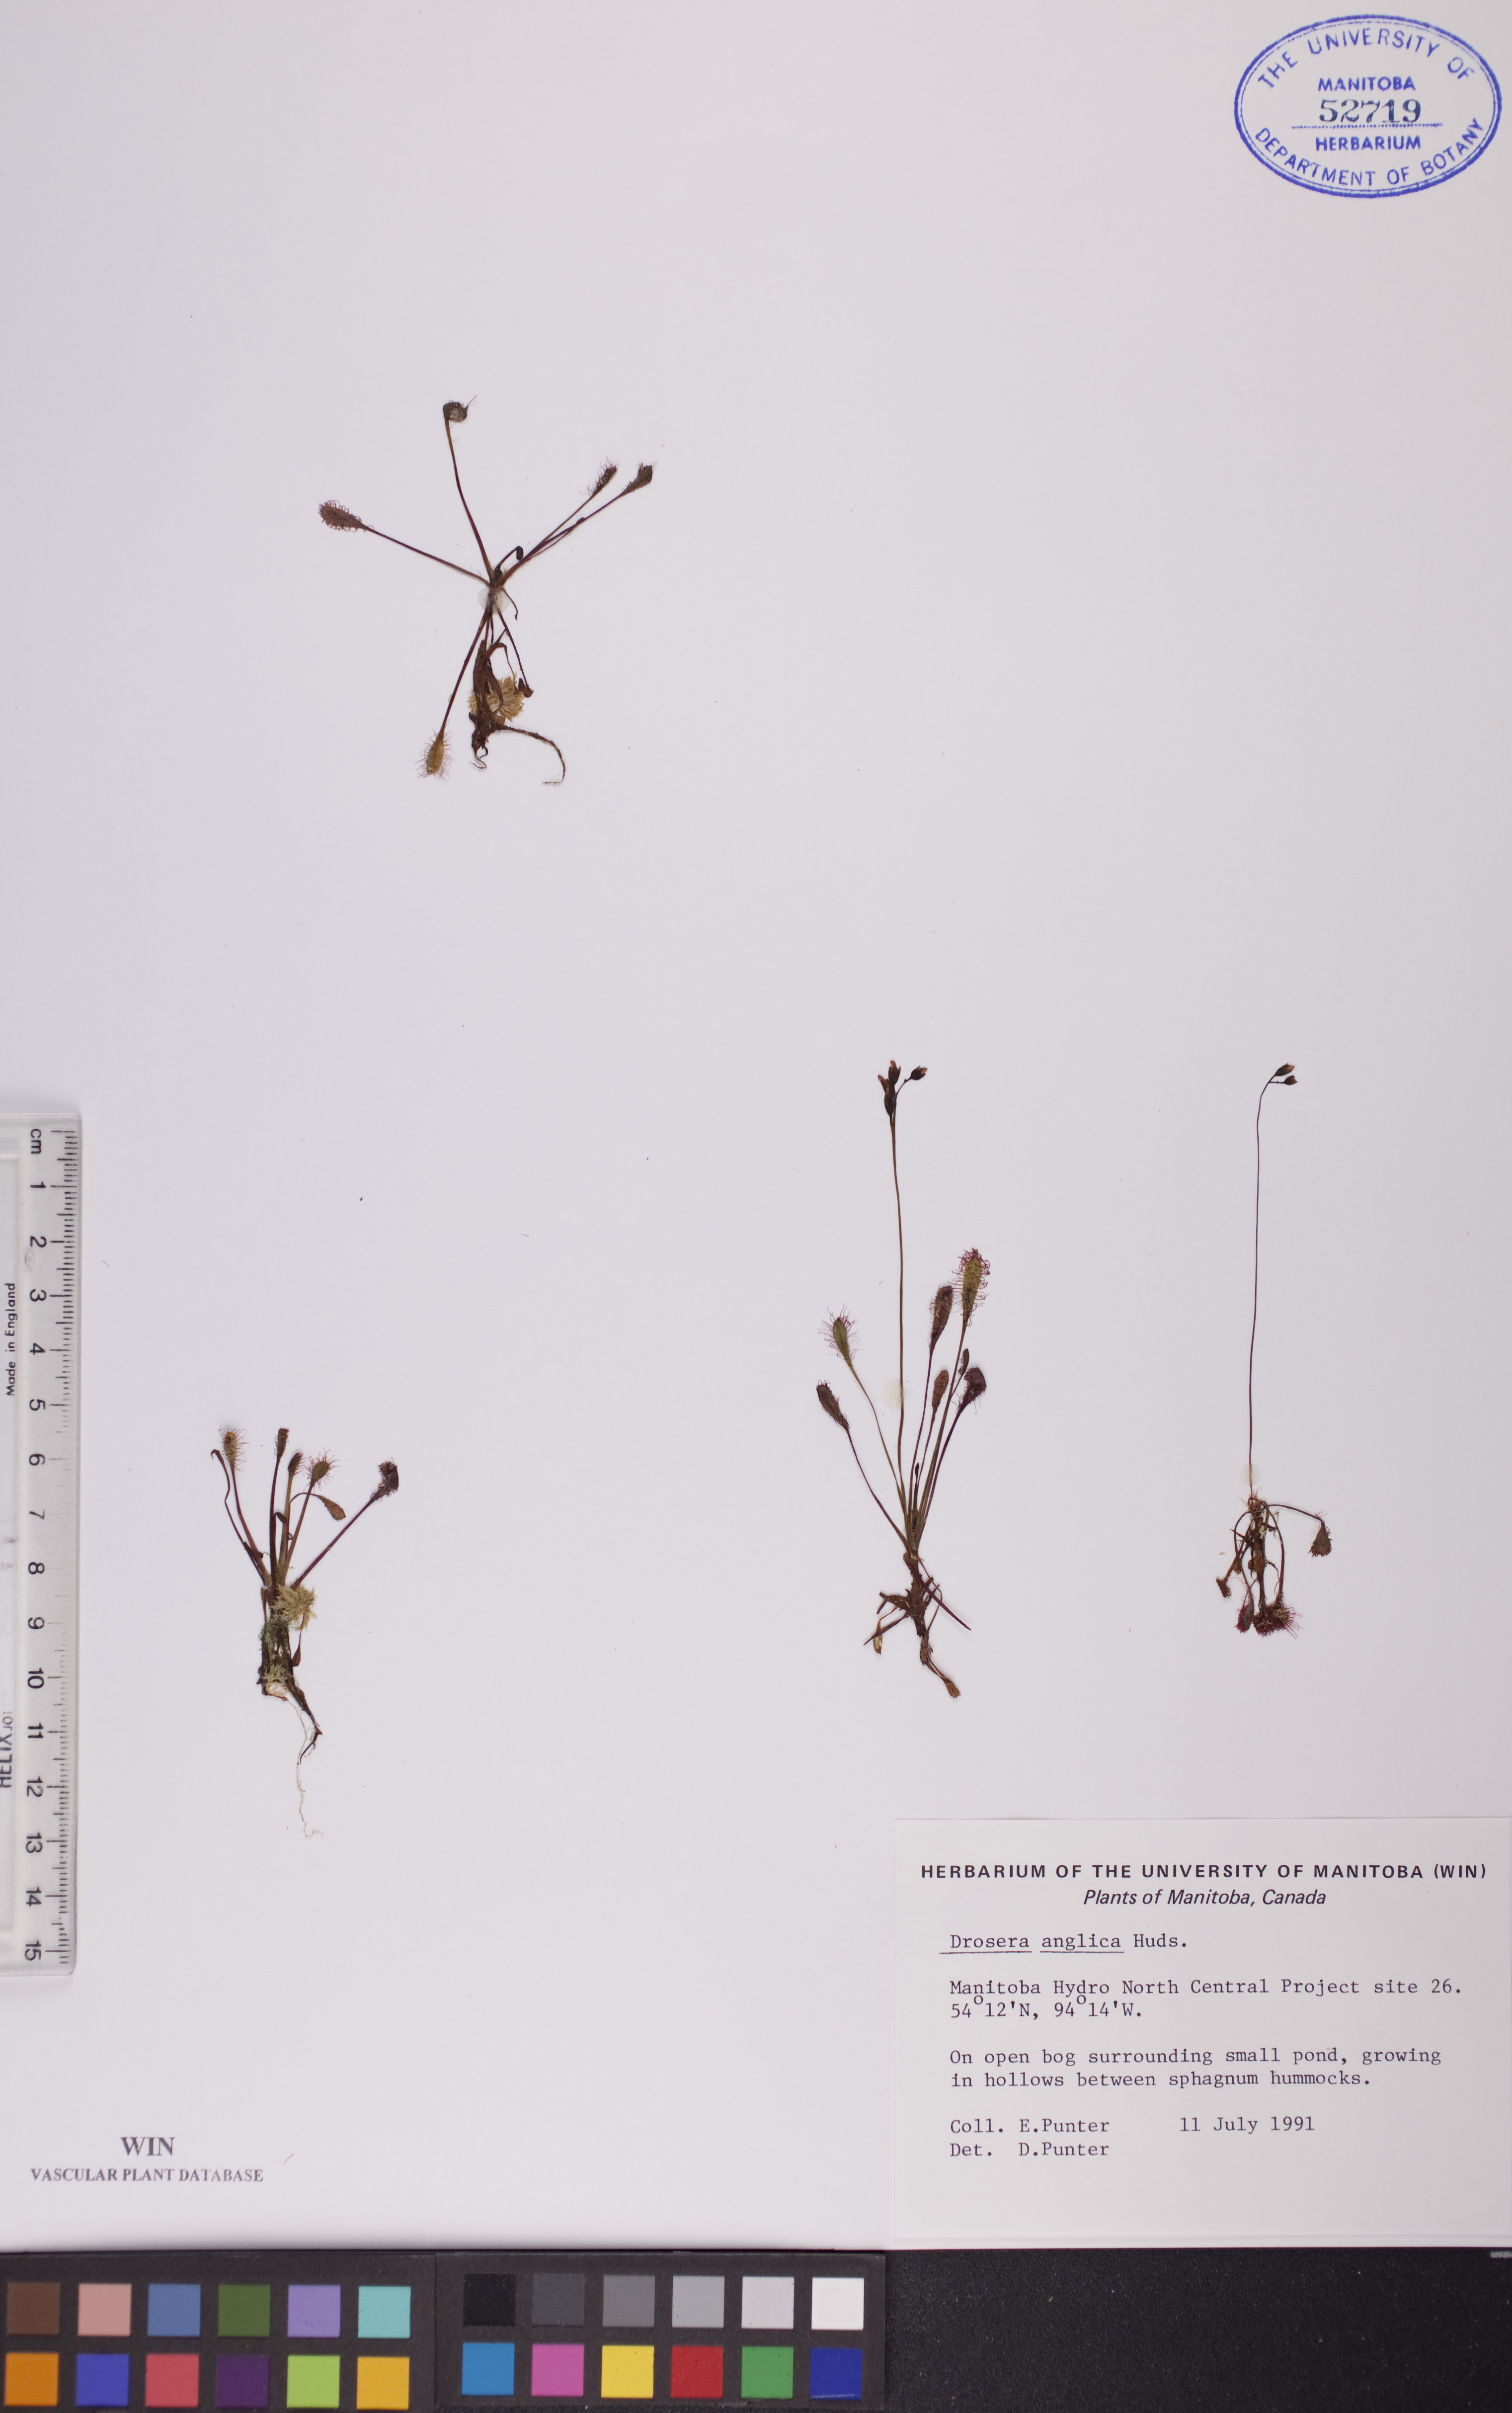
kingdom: Plantae
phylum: Tracheophyta
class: Magnoliopsida
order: Caryophyllales
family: Droseraceae
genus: Drosera
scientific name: Drosera anglica
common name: Great sundew
